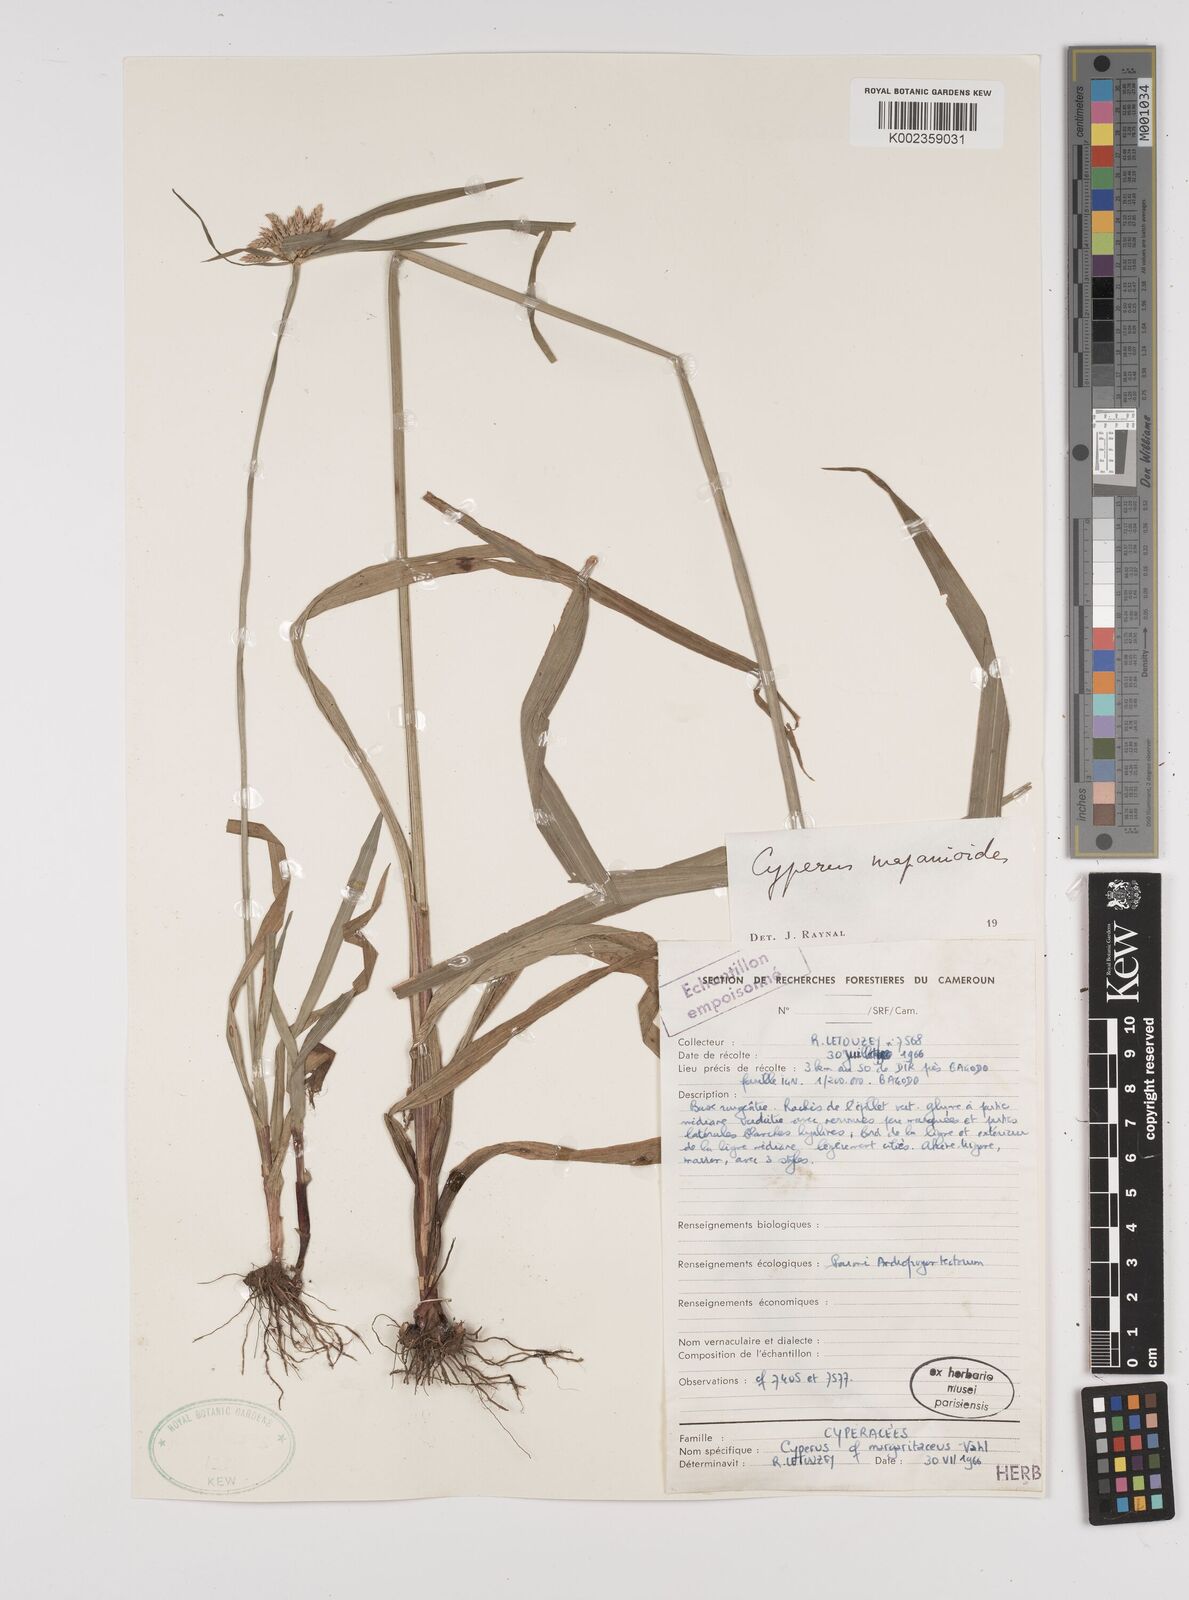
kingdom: Plantae
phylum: Tracheophyta
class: Liliopsida
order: Poales
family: Cyperaceae
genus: Cyperus
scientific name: Cyperus mapanioides
